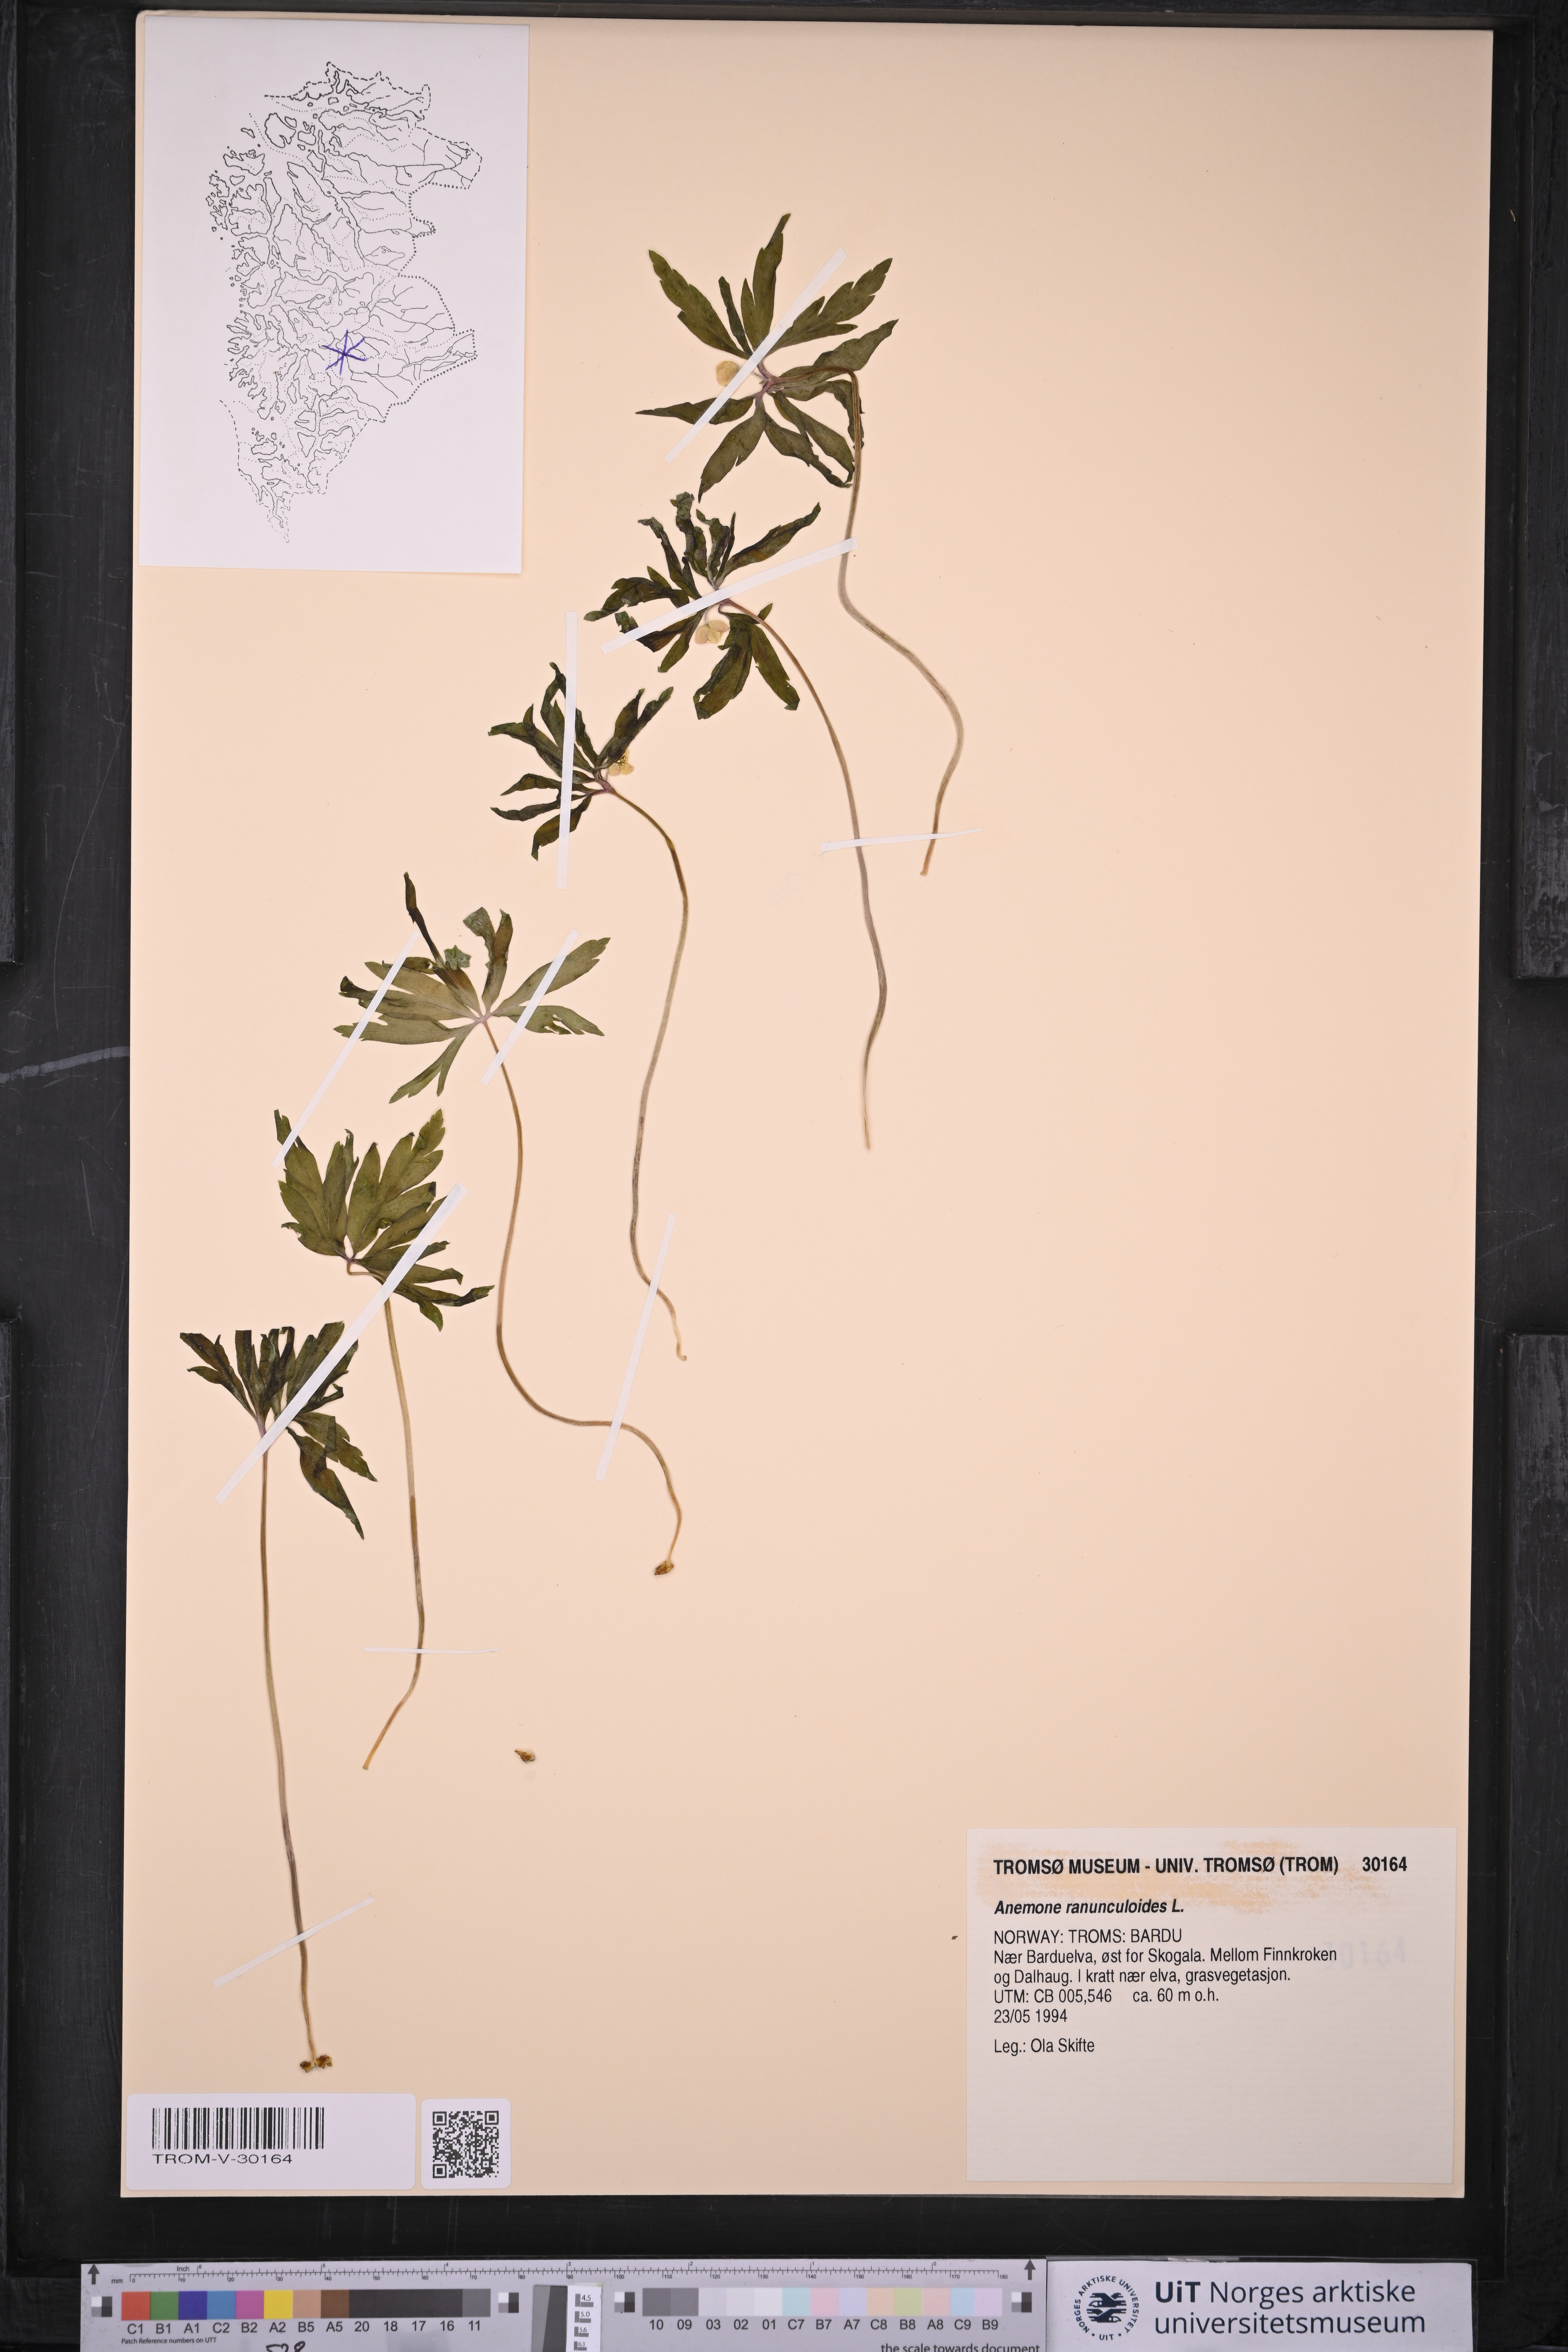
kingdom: Plantae
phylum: Tracheophyta
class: Magnoliopsida
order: Ranunculales
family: Ranunculaceae
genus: Anemone
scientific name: Anemone ranunculoides
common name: Yellow anemone
